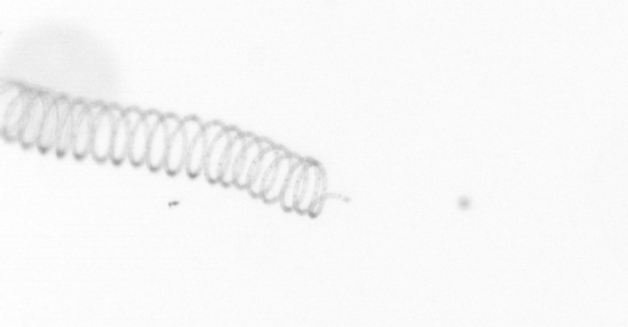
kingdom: Chromista
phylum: Ochrophyta
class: Bacillariophyceae
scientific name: Bacillariophyceae
